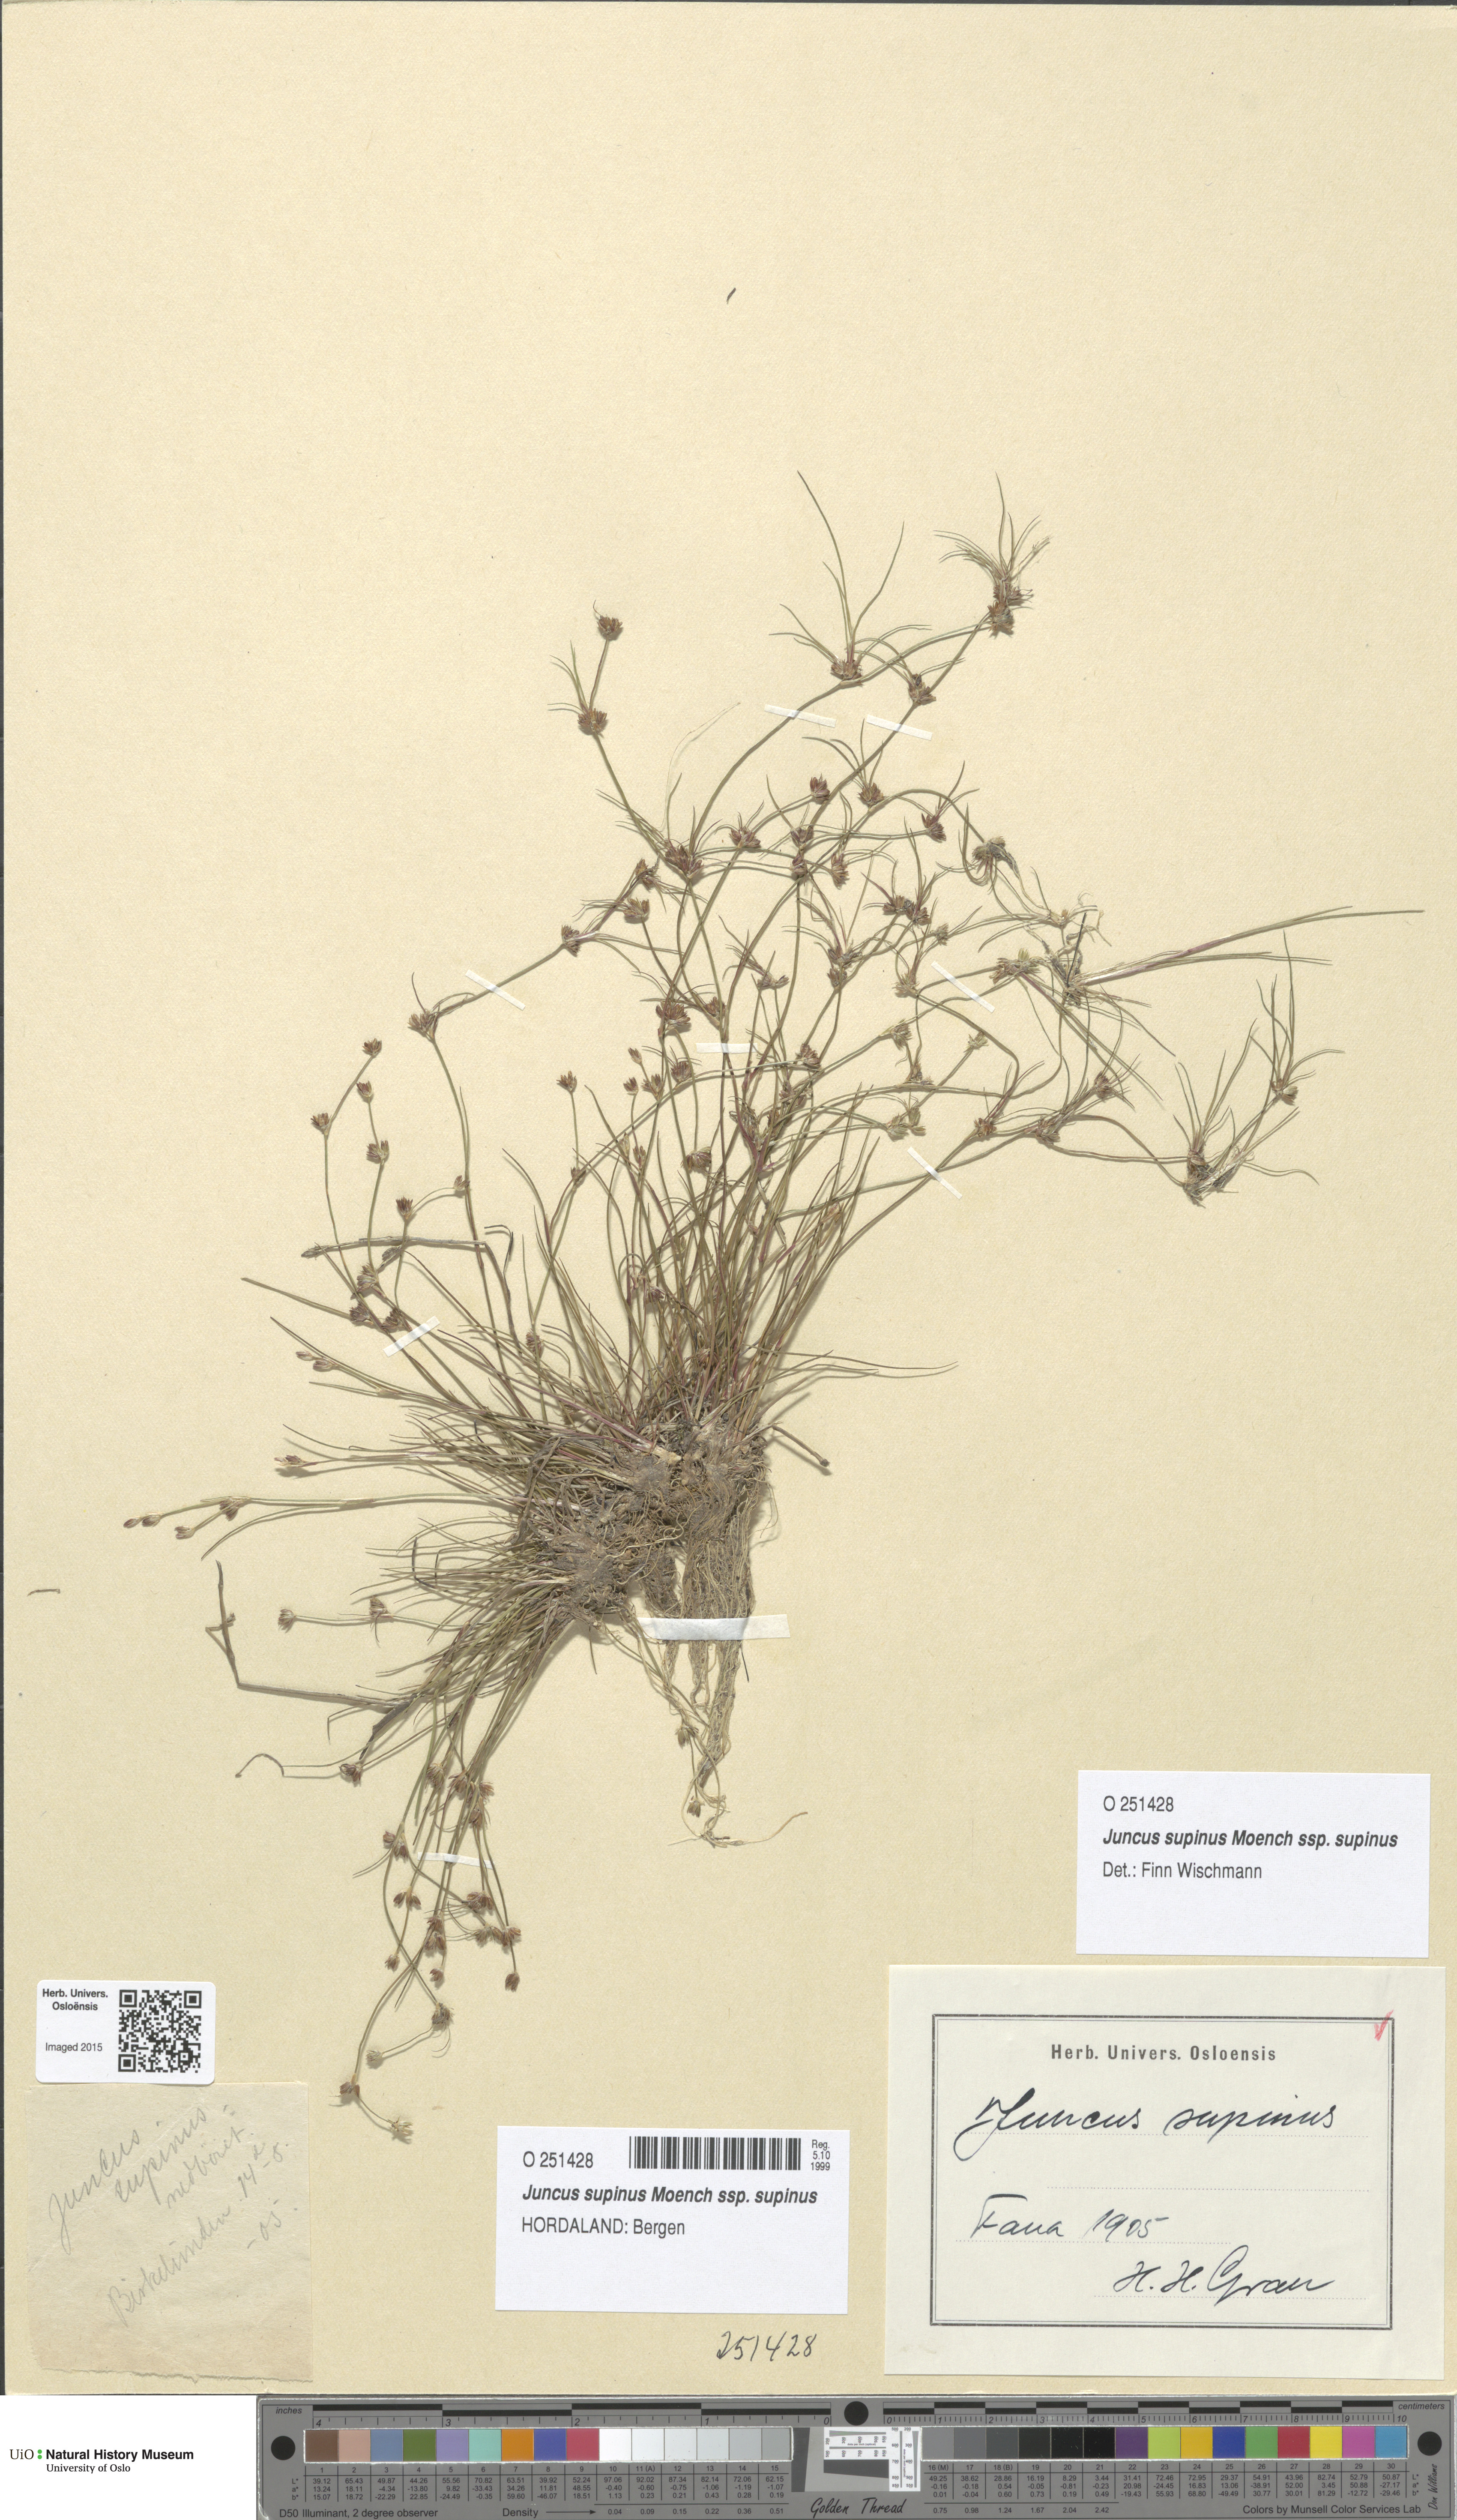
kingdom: Plantae
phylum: Tracheophyta
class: Liliopsida
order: Poales
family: Juncaceae
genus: Juncus
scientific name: Juncus bulbosus
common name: Bulbous rush
